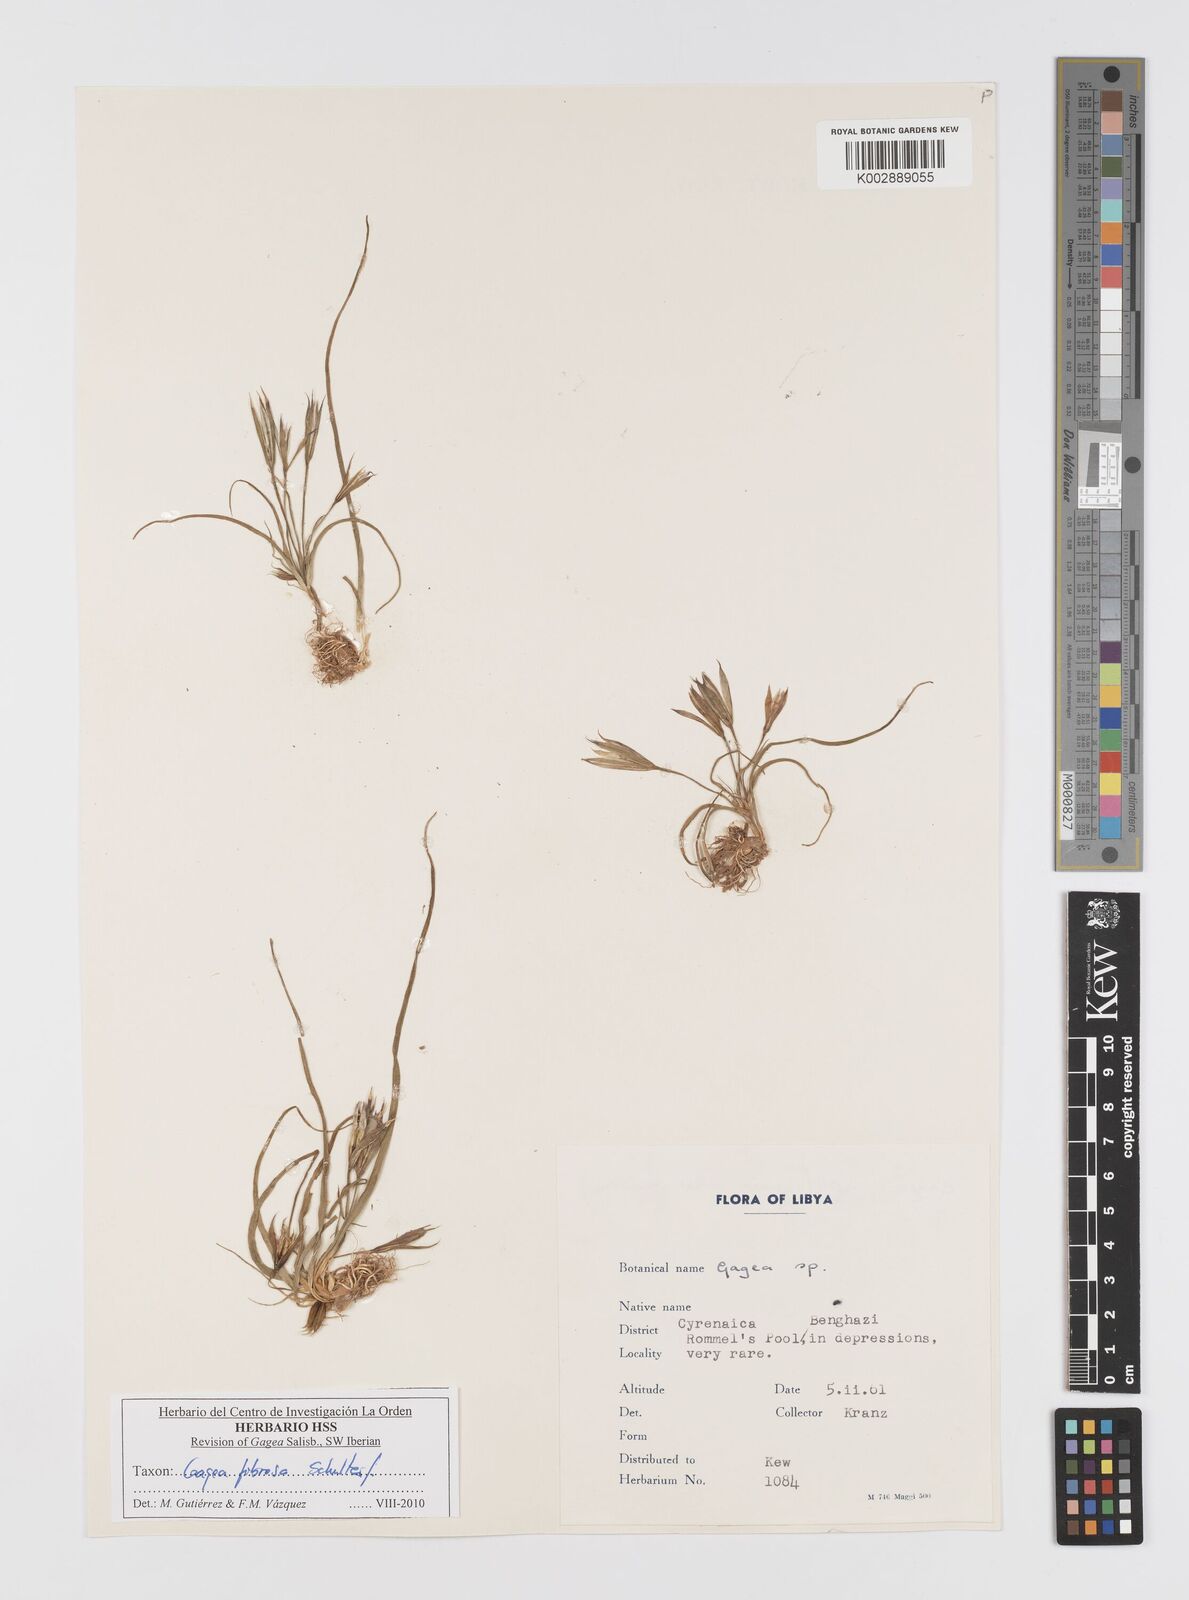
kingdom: Plantae
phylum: Tracheophyta
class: Liliopsida
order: Liliales
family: Liliaceae
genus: Gagea
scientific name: Gagea fibrosa
